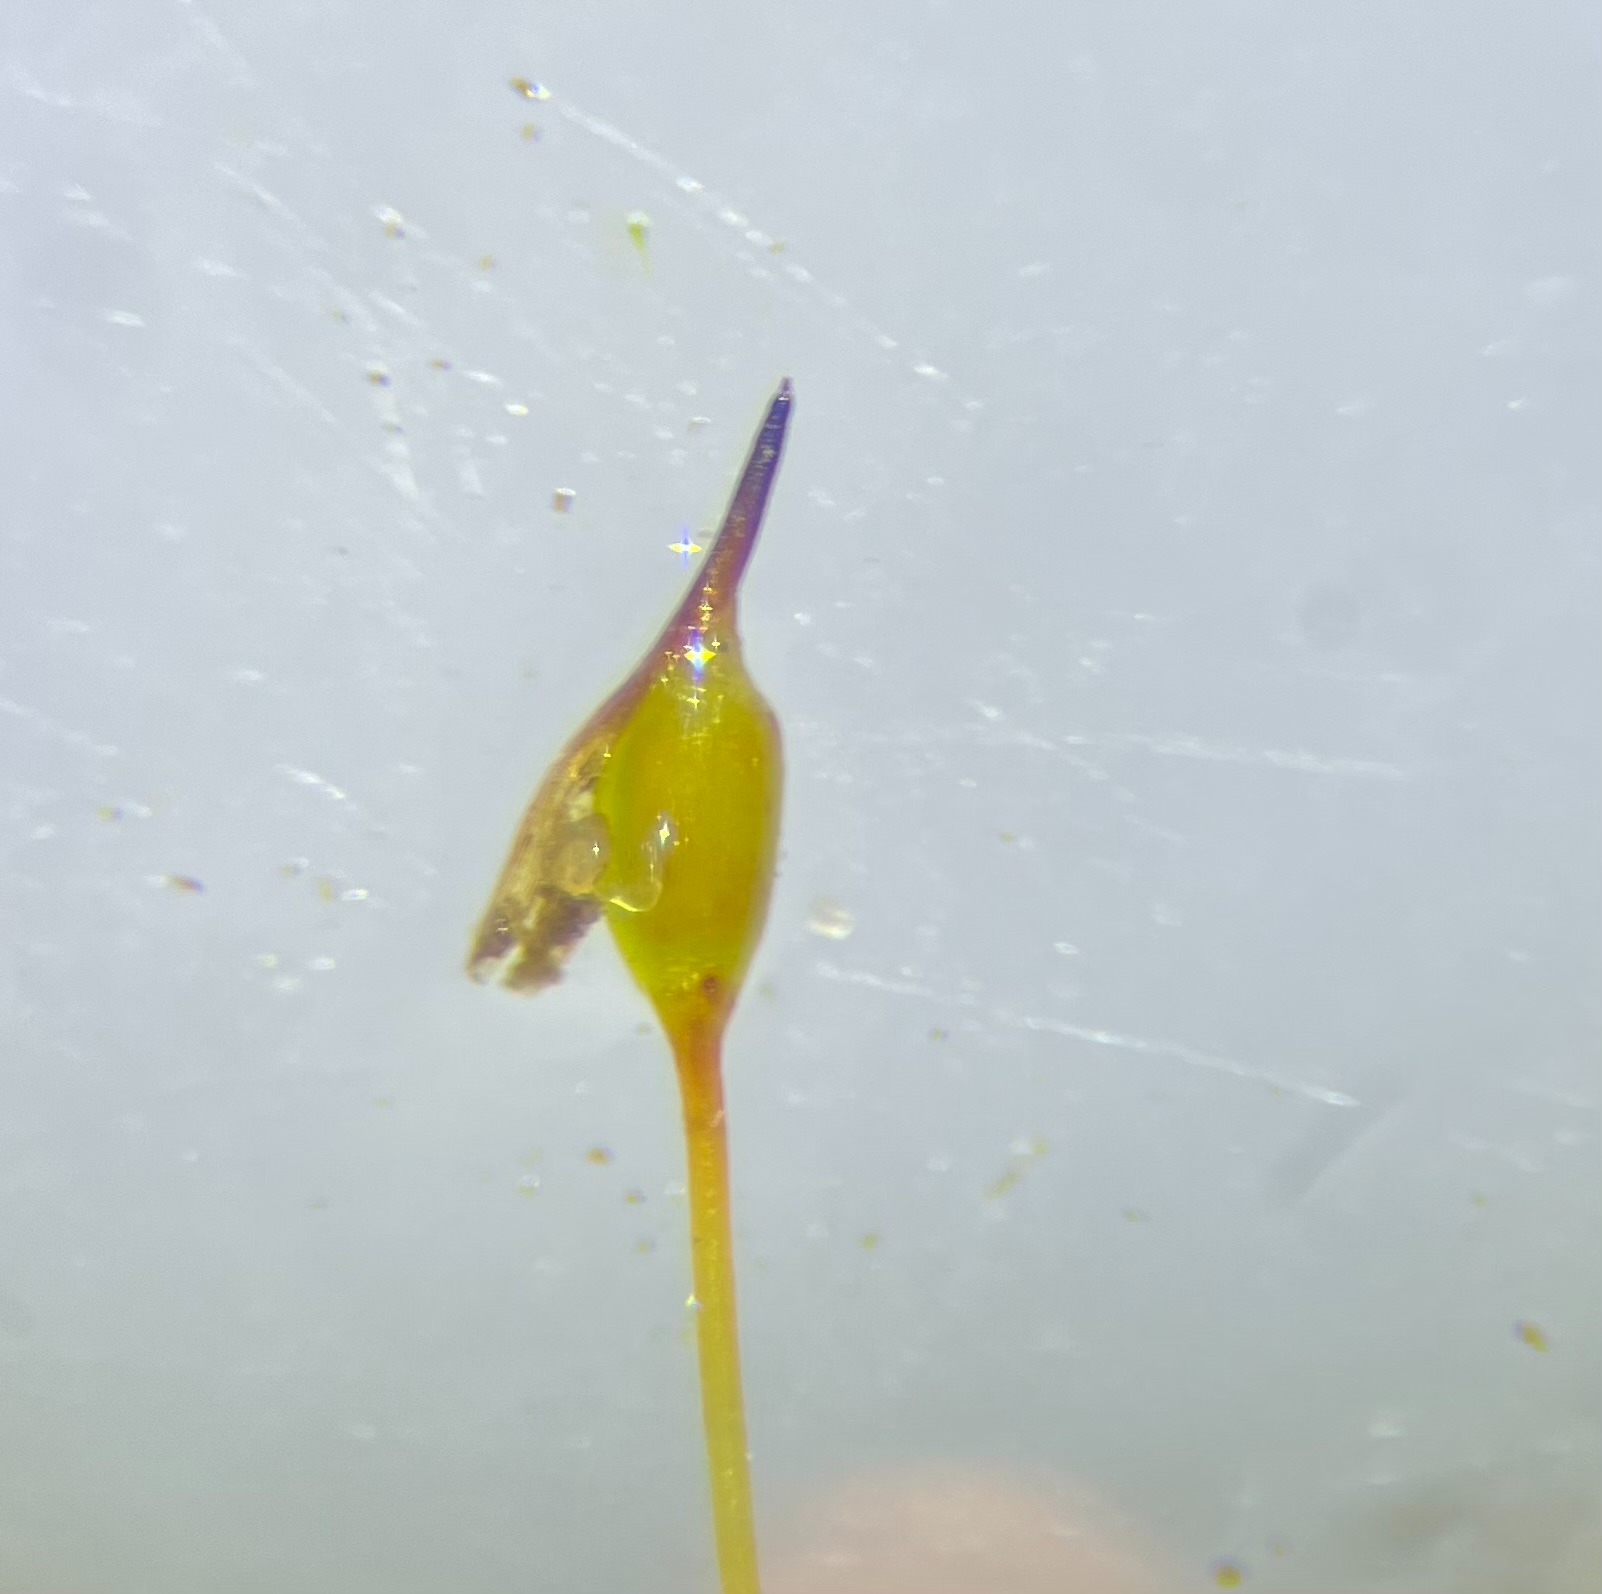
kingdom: Plantae
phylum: Bryophyta
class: Bryopsida
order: Pottiales
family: Pottiaceae
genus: Hennediella
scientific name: Hennediella heimii
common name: Salt-bægermos
